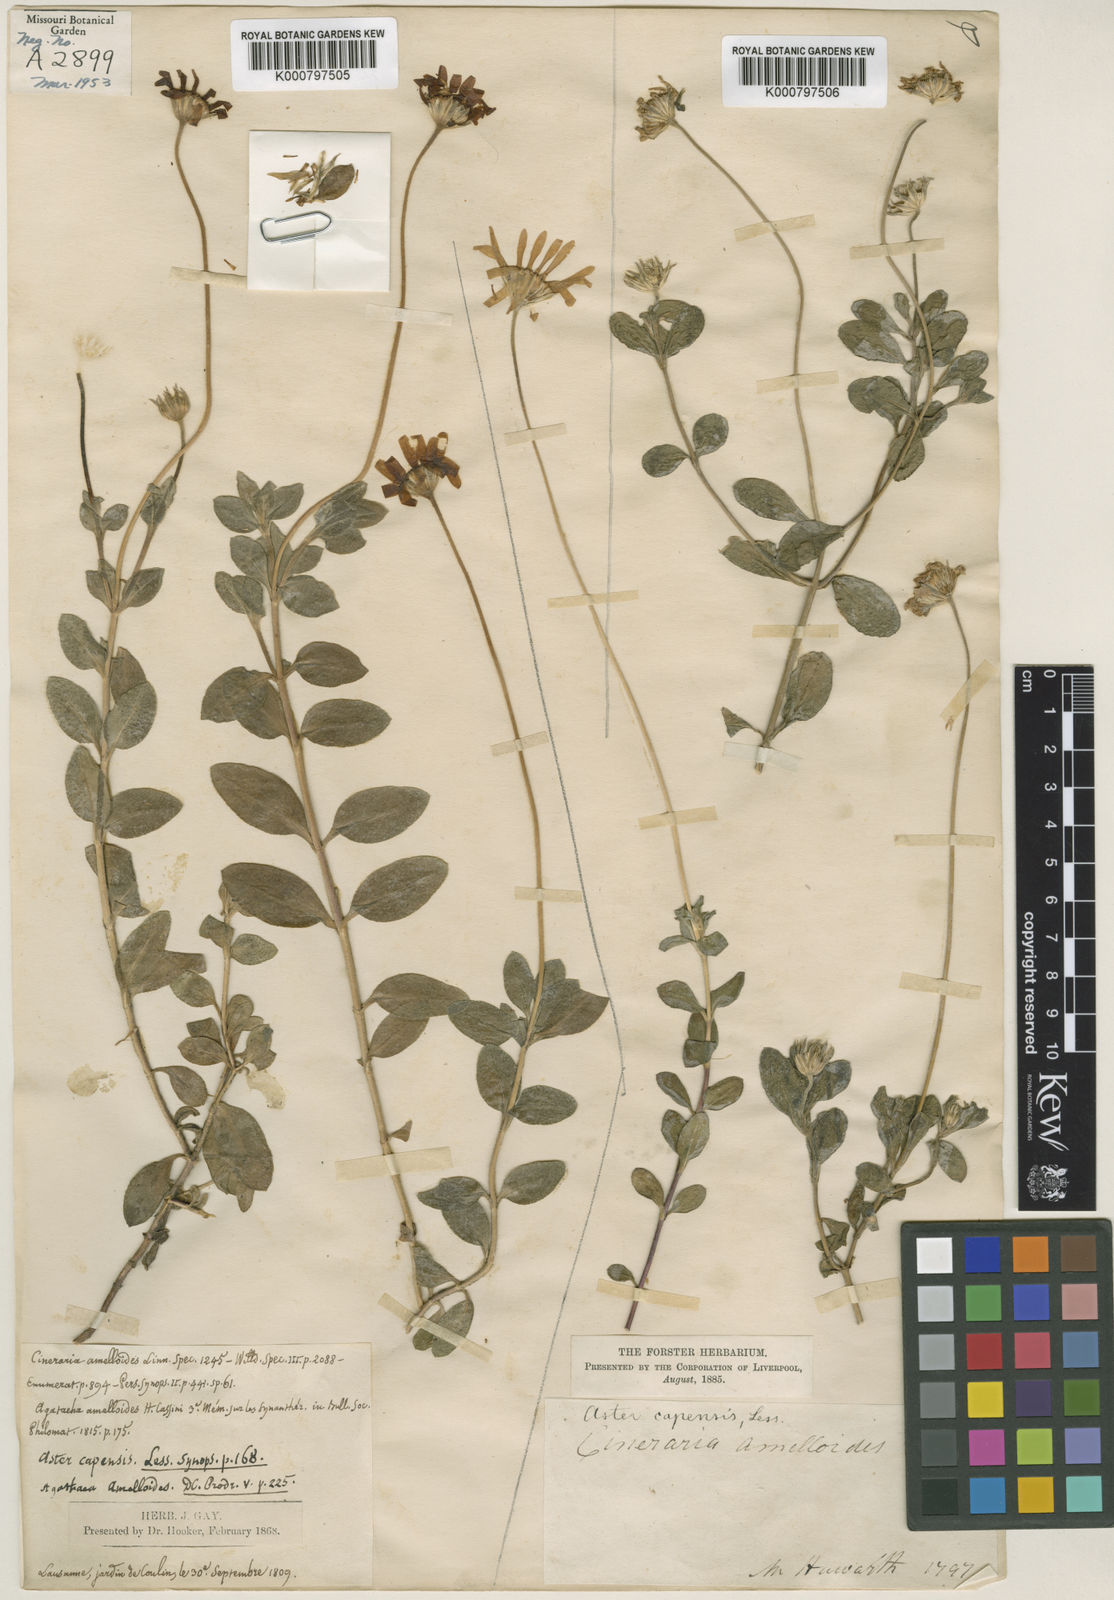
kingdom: Plantae
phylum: Tracheophyta
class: Magnoliopsida
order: Asterales
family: Asteraceae
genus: Felicia
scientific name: Felicia amelloides
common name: Blue marguerite
